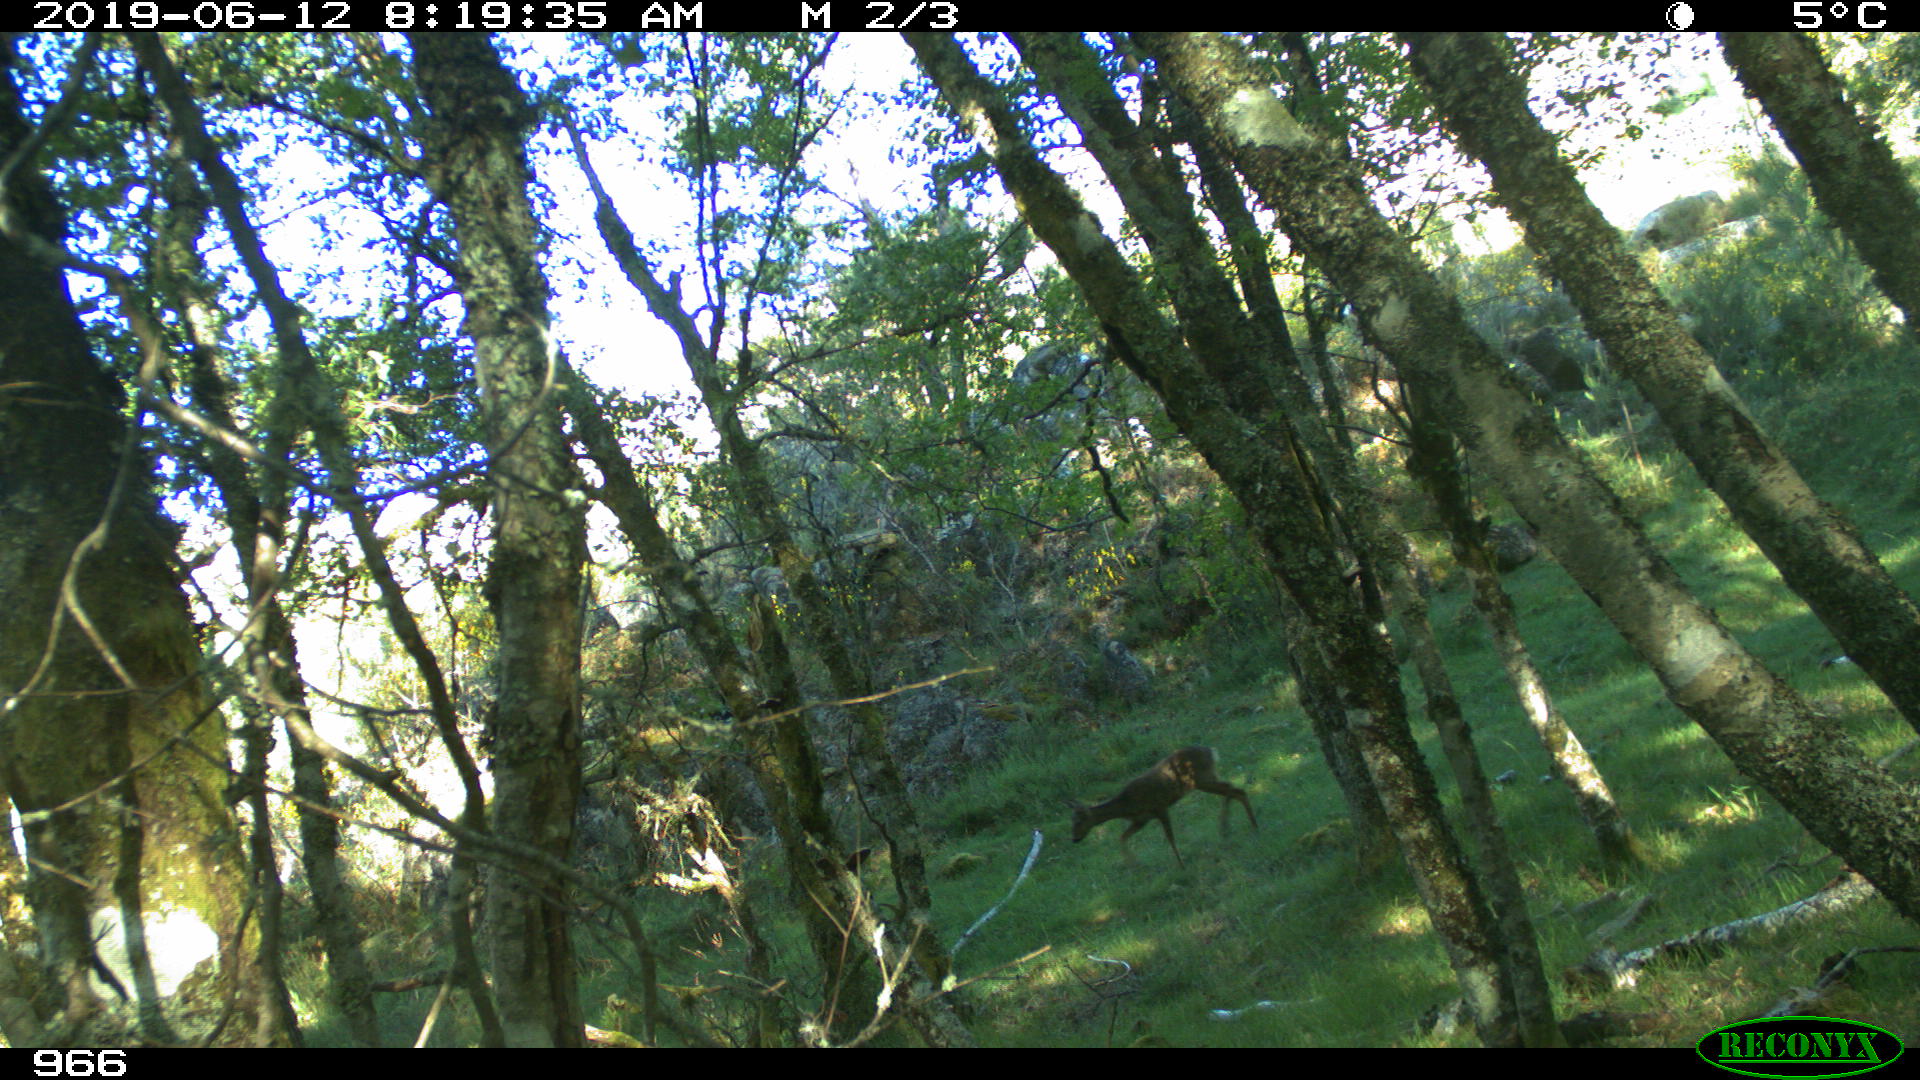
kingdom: Animalia
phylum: Chordata
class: Mammalia
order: Artiodactyla
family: Cervidae
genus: Capreolus
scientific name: Capreolus capreolus
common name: Western roe deer
